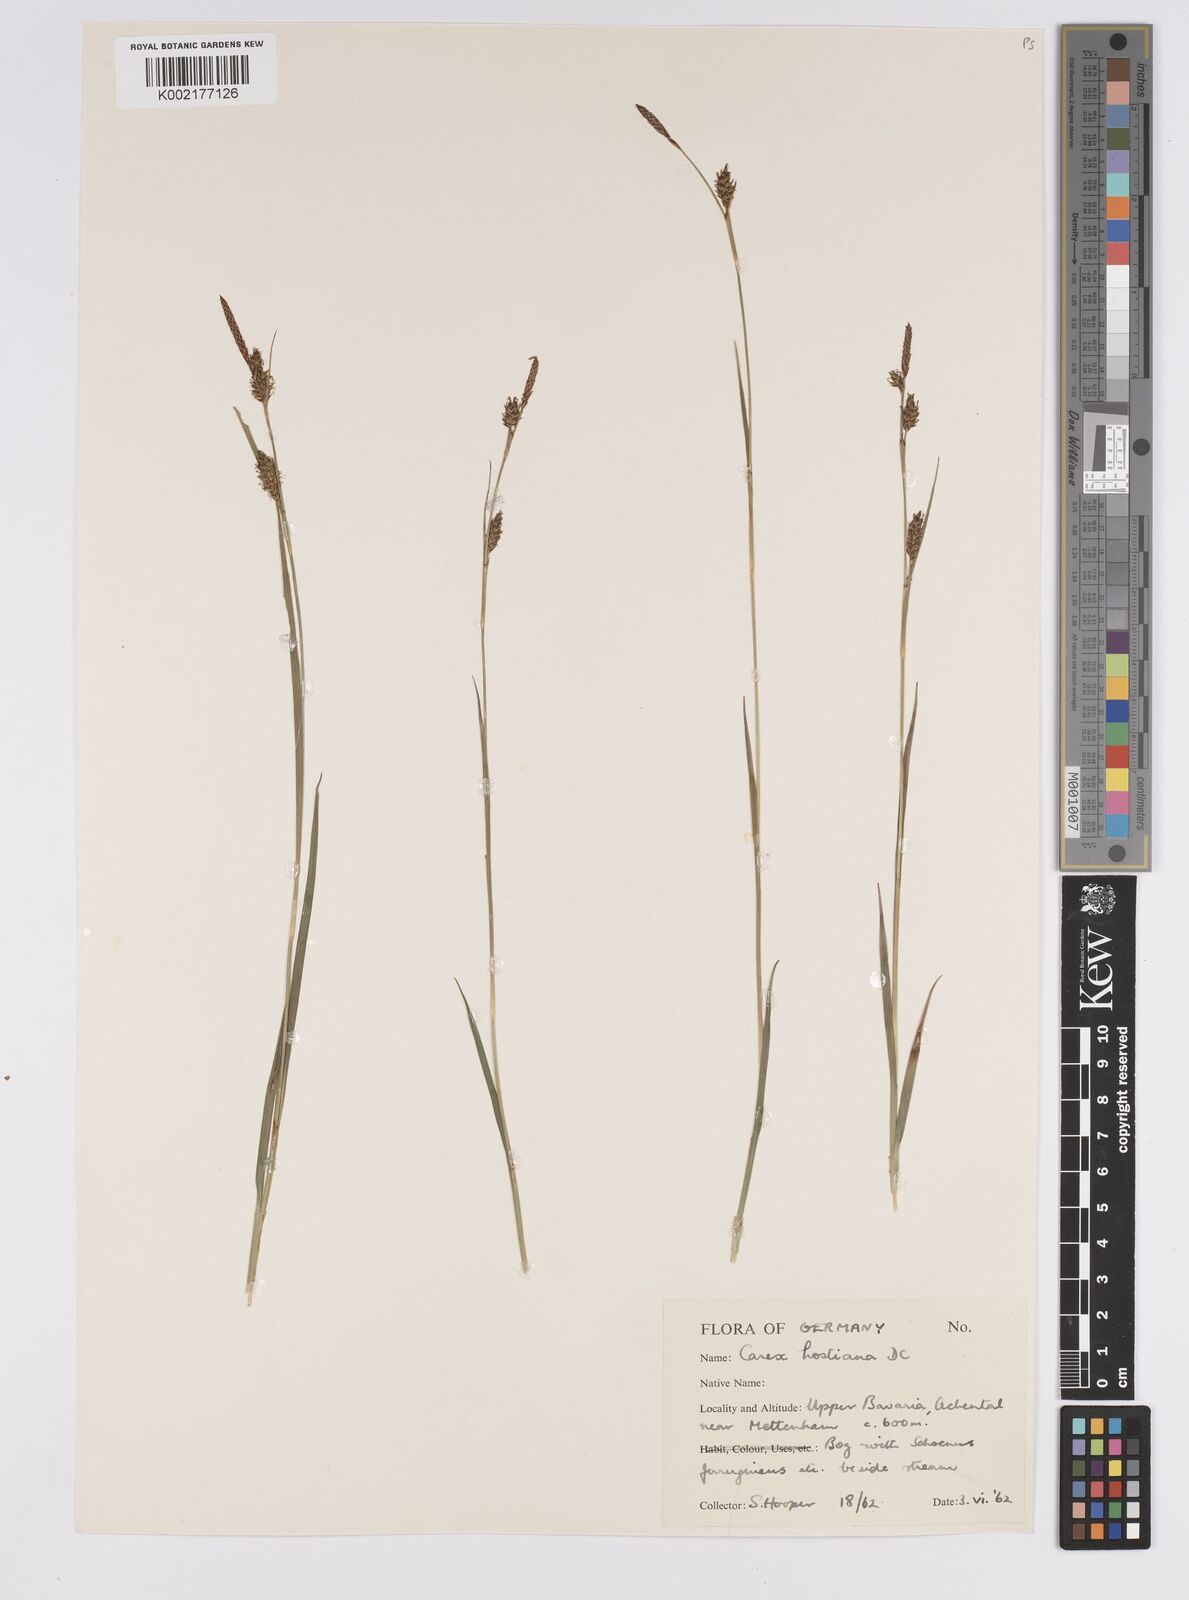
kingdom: Plantae
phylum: Tracheophyta
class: Liliopsida
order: Poales
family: Cyperaceae
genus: Carex
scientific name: Carex hostiana
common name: Tawny sedge
